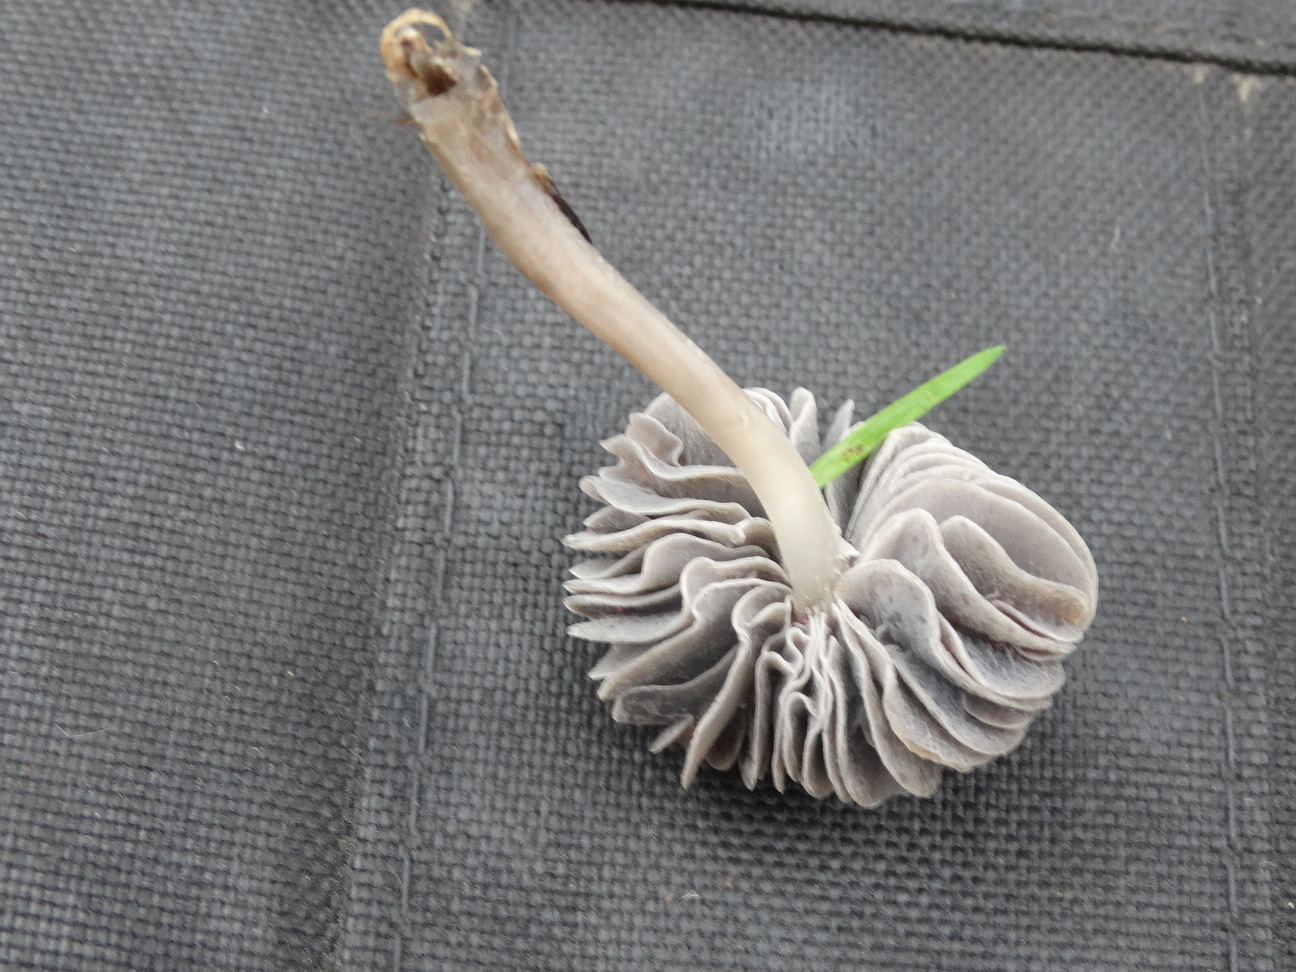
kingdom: Fungi
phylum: Basidiomycota
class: Agaricomycetes
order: Agaricales
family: Mycenaceae
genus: Mycena
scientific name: Mycena aetites
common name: plæne-huesvamp
